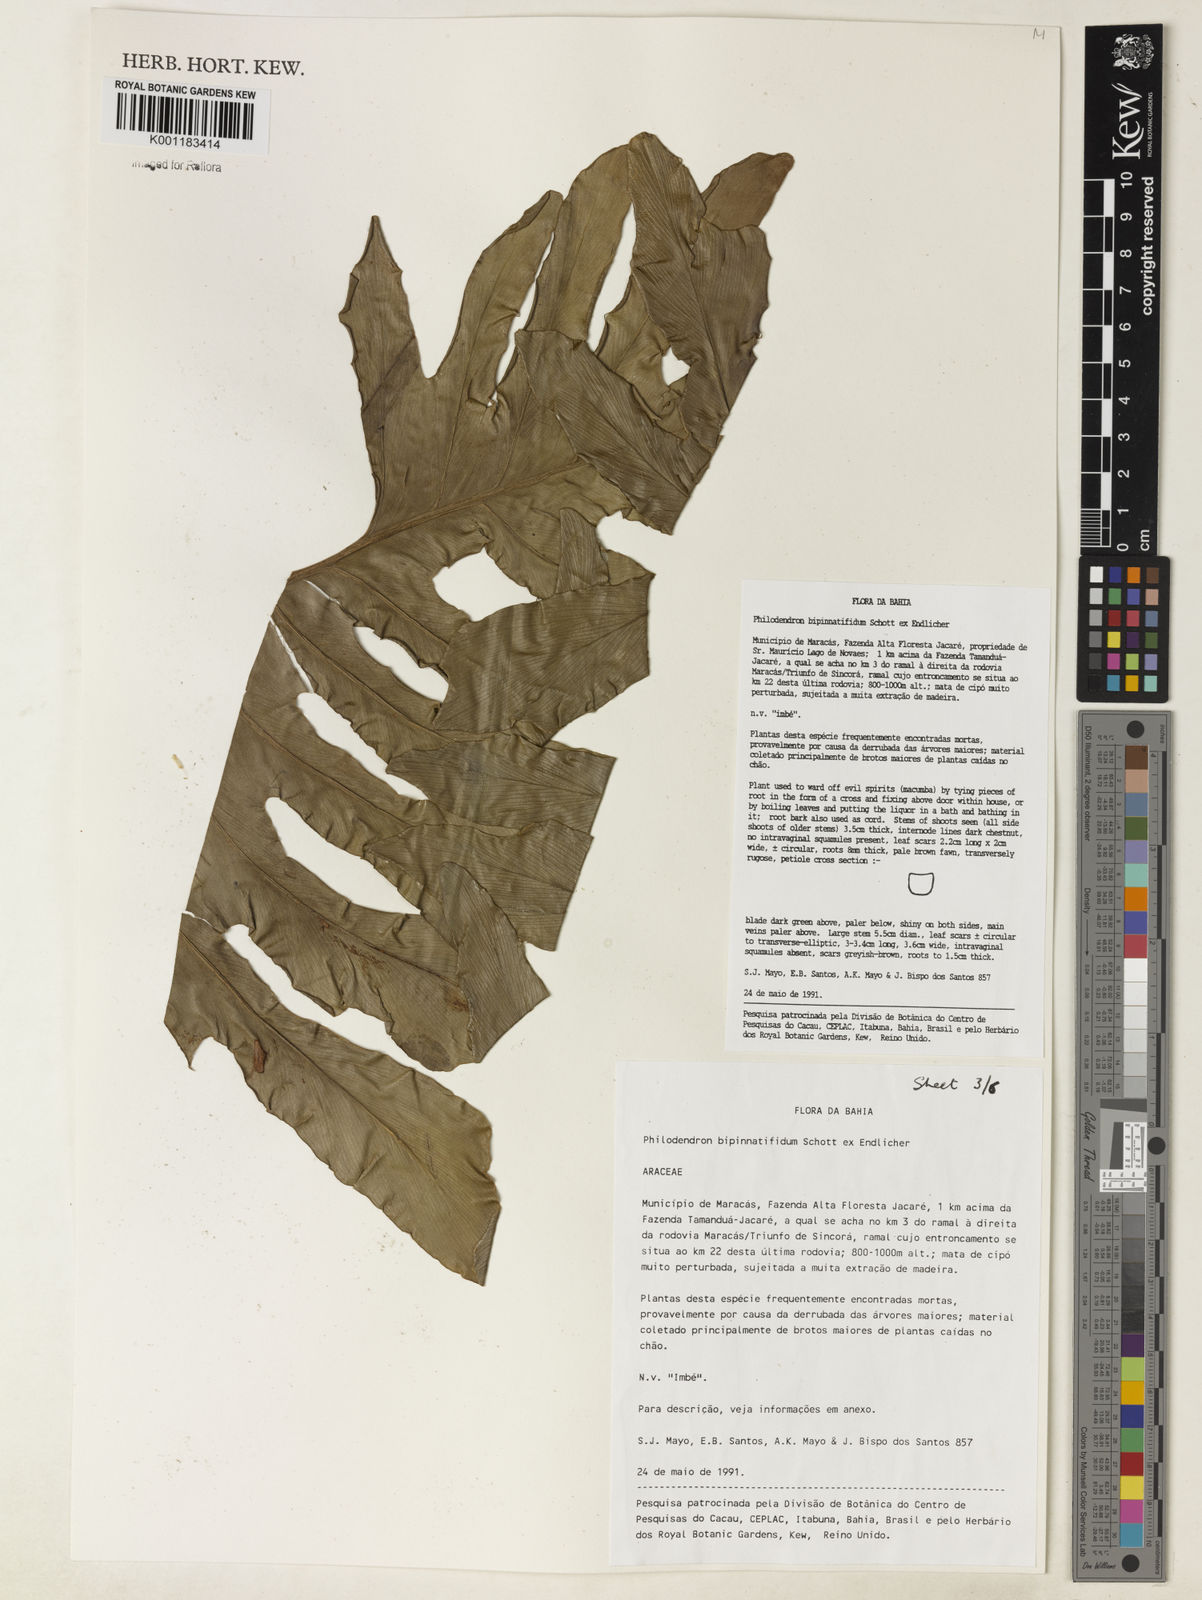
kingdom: Plantae
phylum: Tracheophyta
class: Liliopsida
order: Alismatales
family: Araceae
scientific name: Araceae
